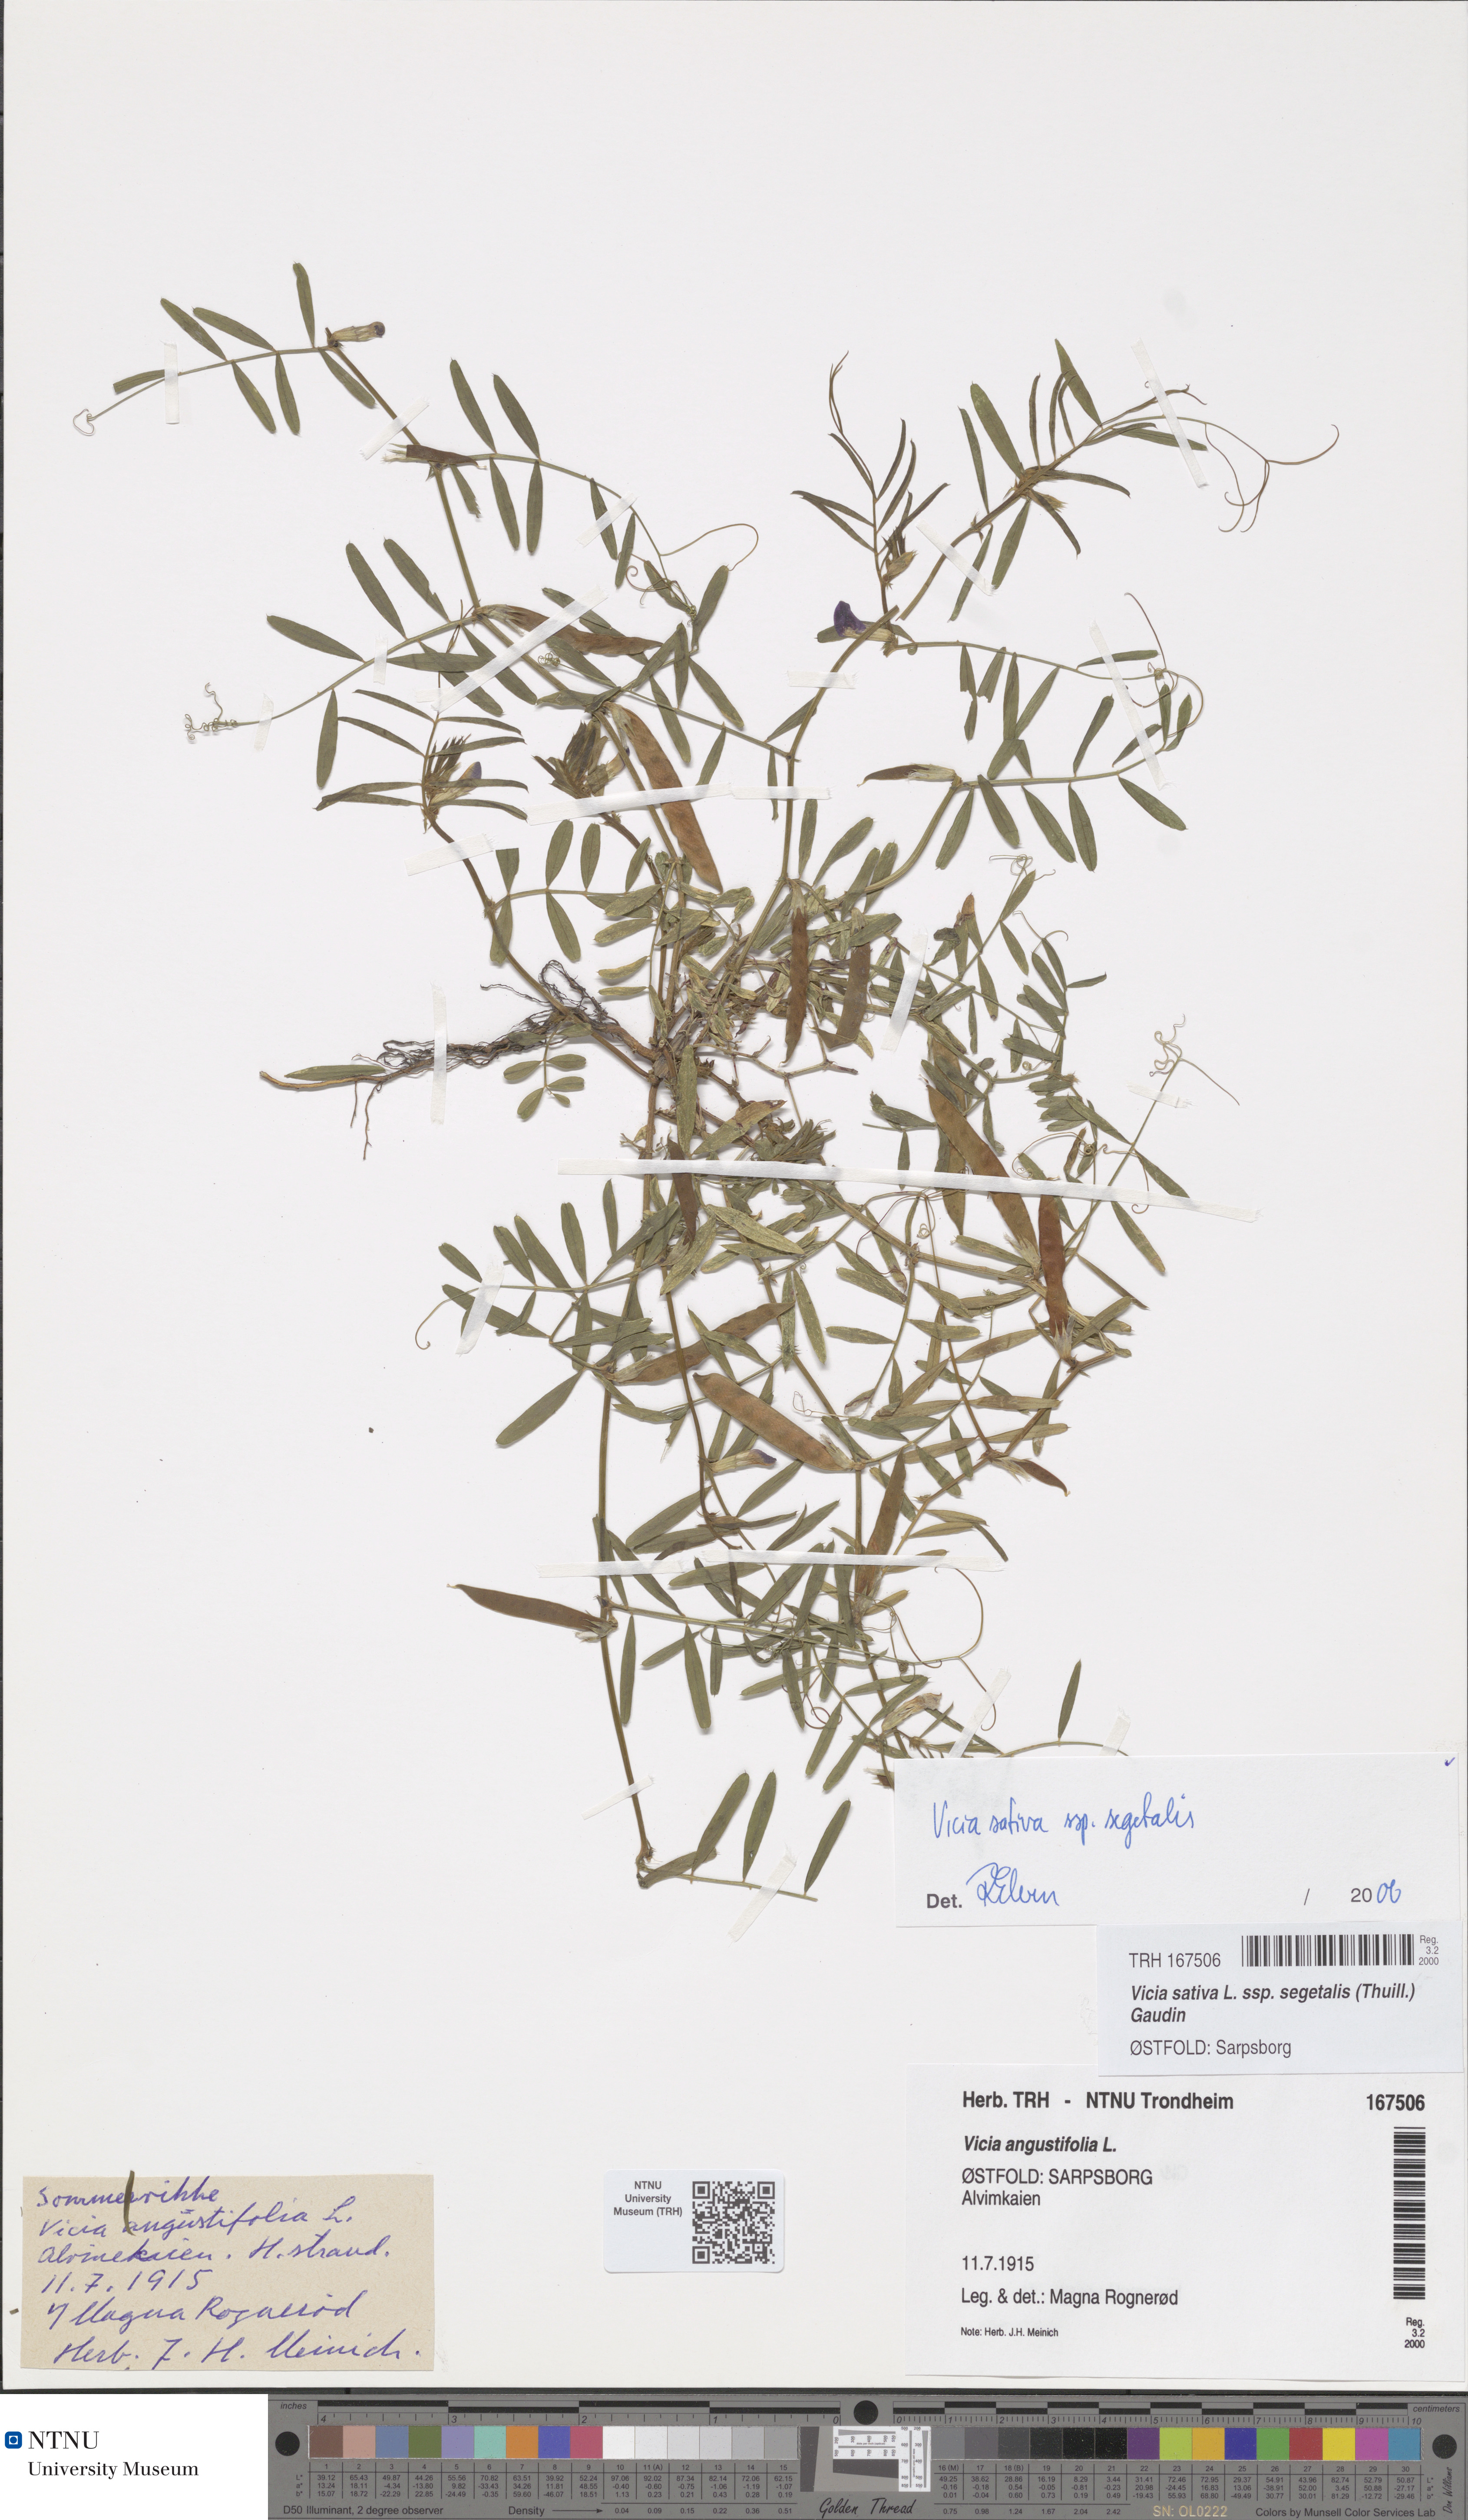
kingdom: Plantae
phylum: Tracheophyta
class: Magnoliopsida
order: Fabales
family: Fabaceae
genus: Vicia
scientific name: Vicia sativa
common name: Garden vetch
